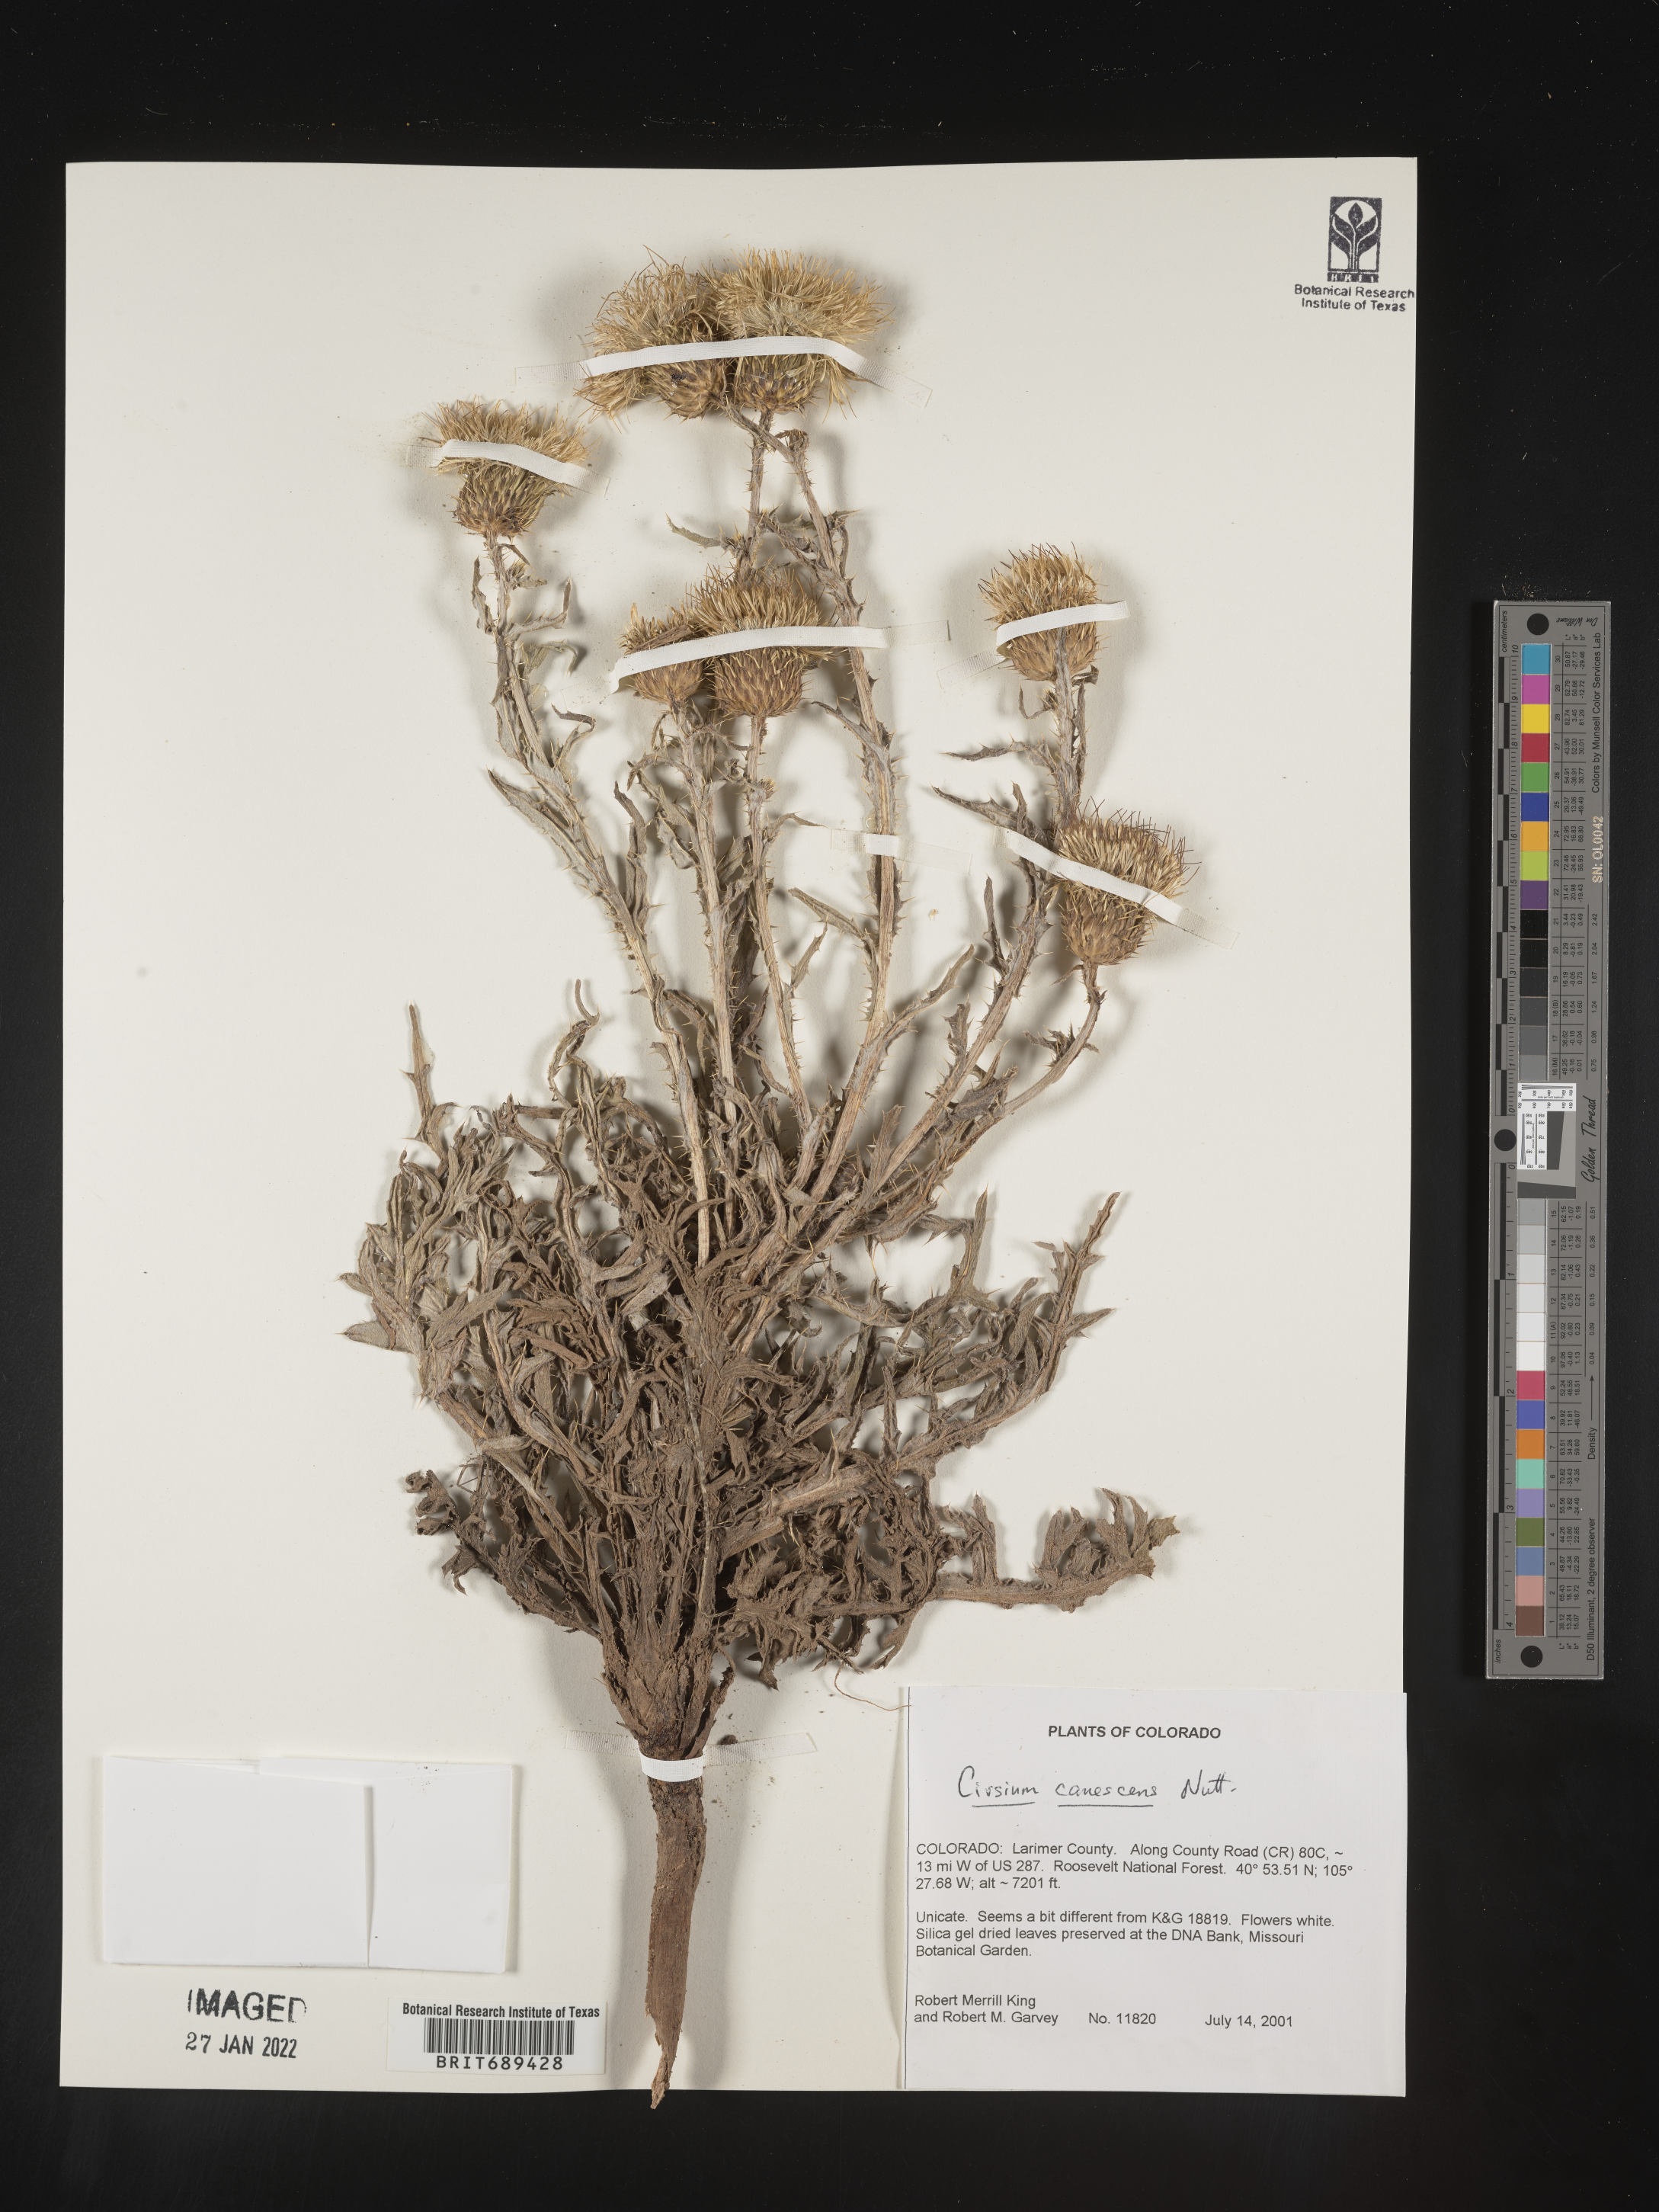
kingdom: Plantae
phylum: Tracheophyta
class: Magnoliopsida
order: Asterales
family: Asteraceae
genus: Cirsium
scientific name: Cirsium canescens
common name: Prairie thistle
